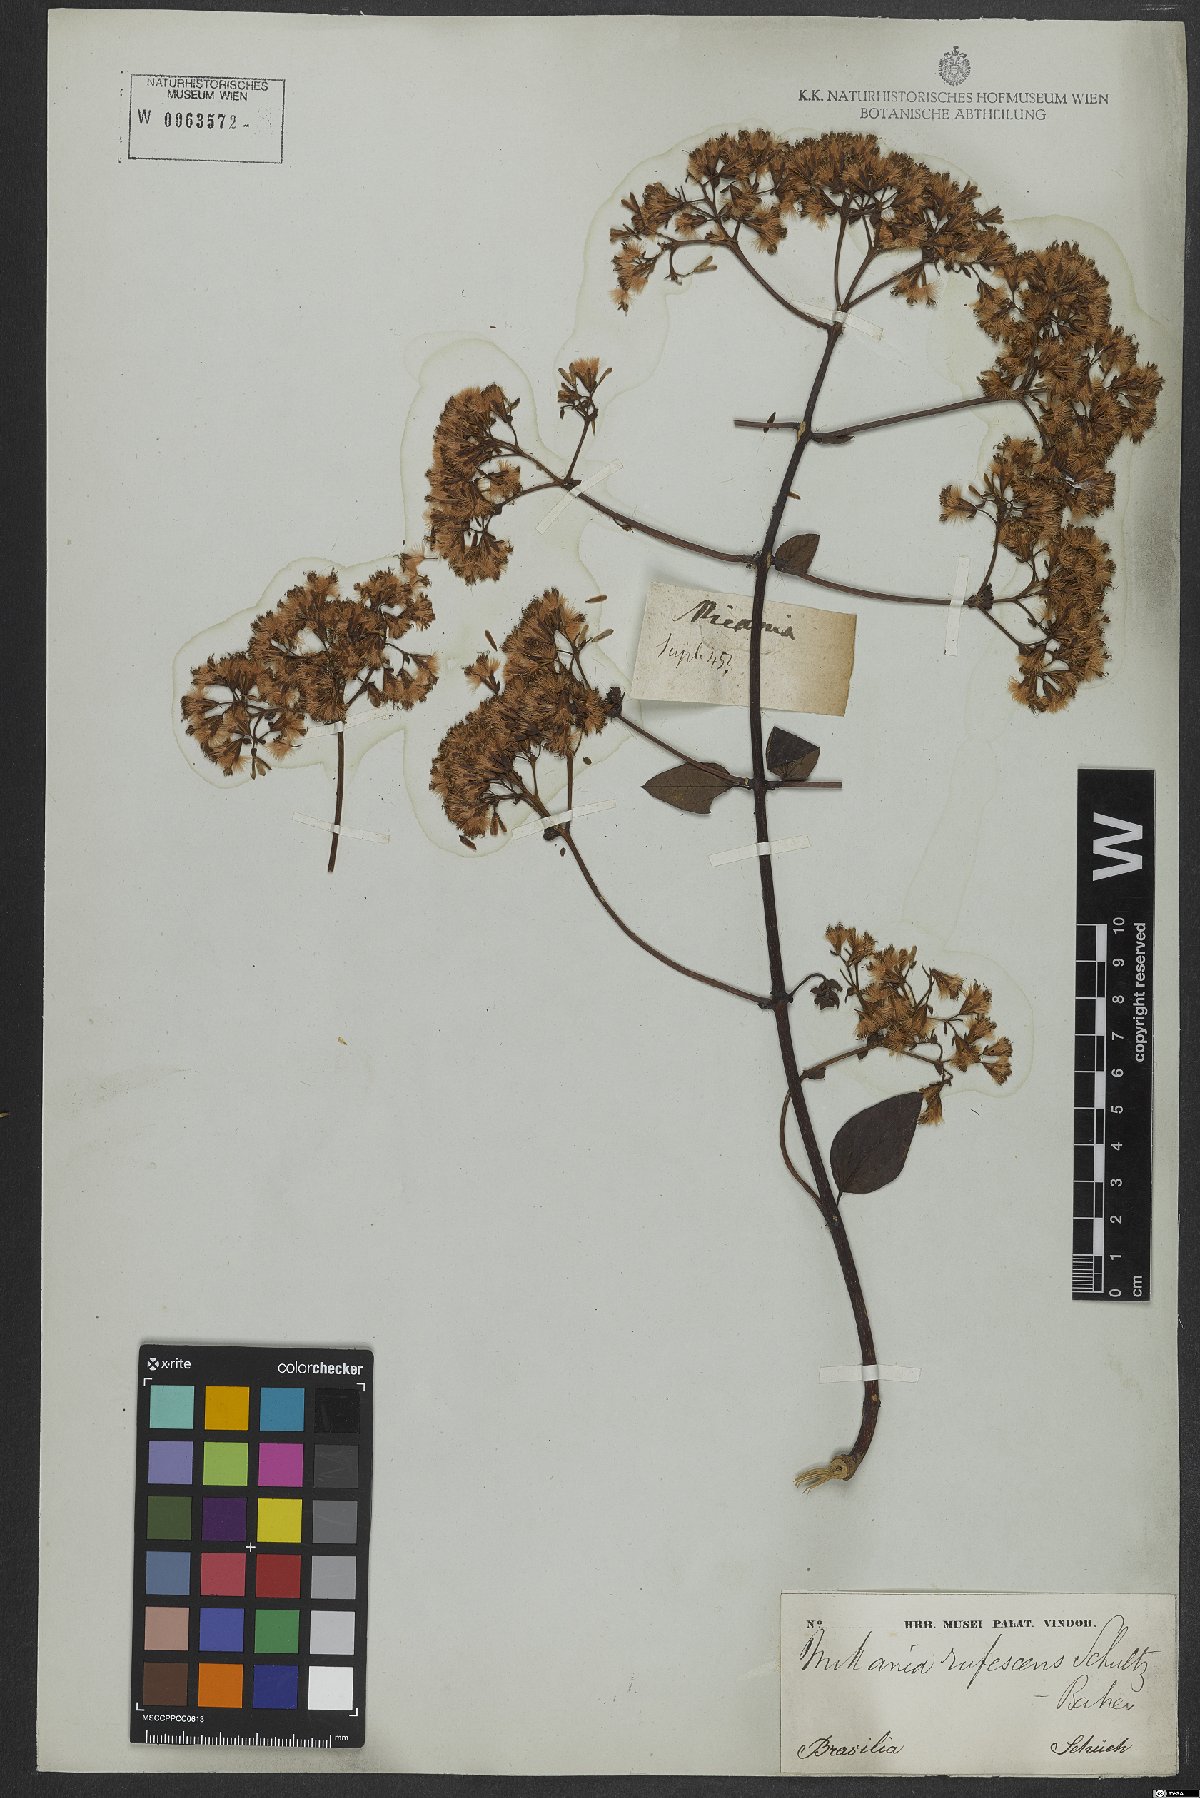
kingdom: Plantae
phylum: Tracheophyta
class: Magnoliopsida
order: Asterales
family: Asteraceae
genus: Mikania
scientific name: Mikania rufescens
